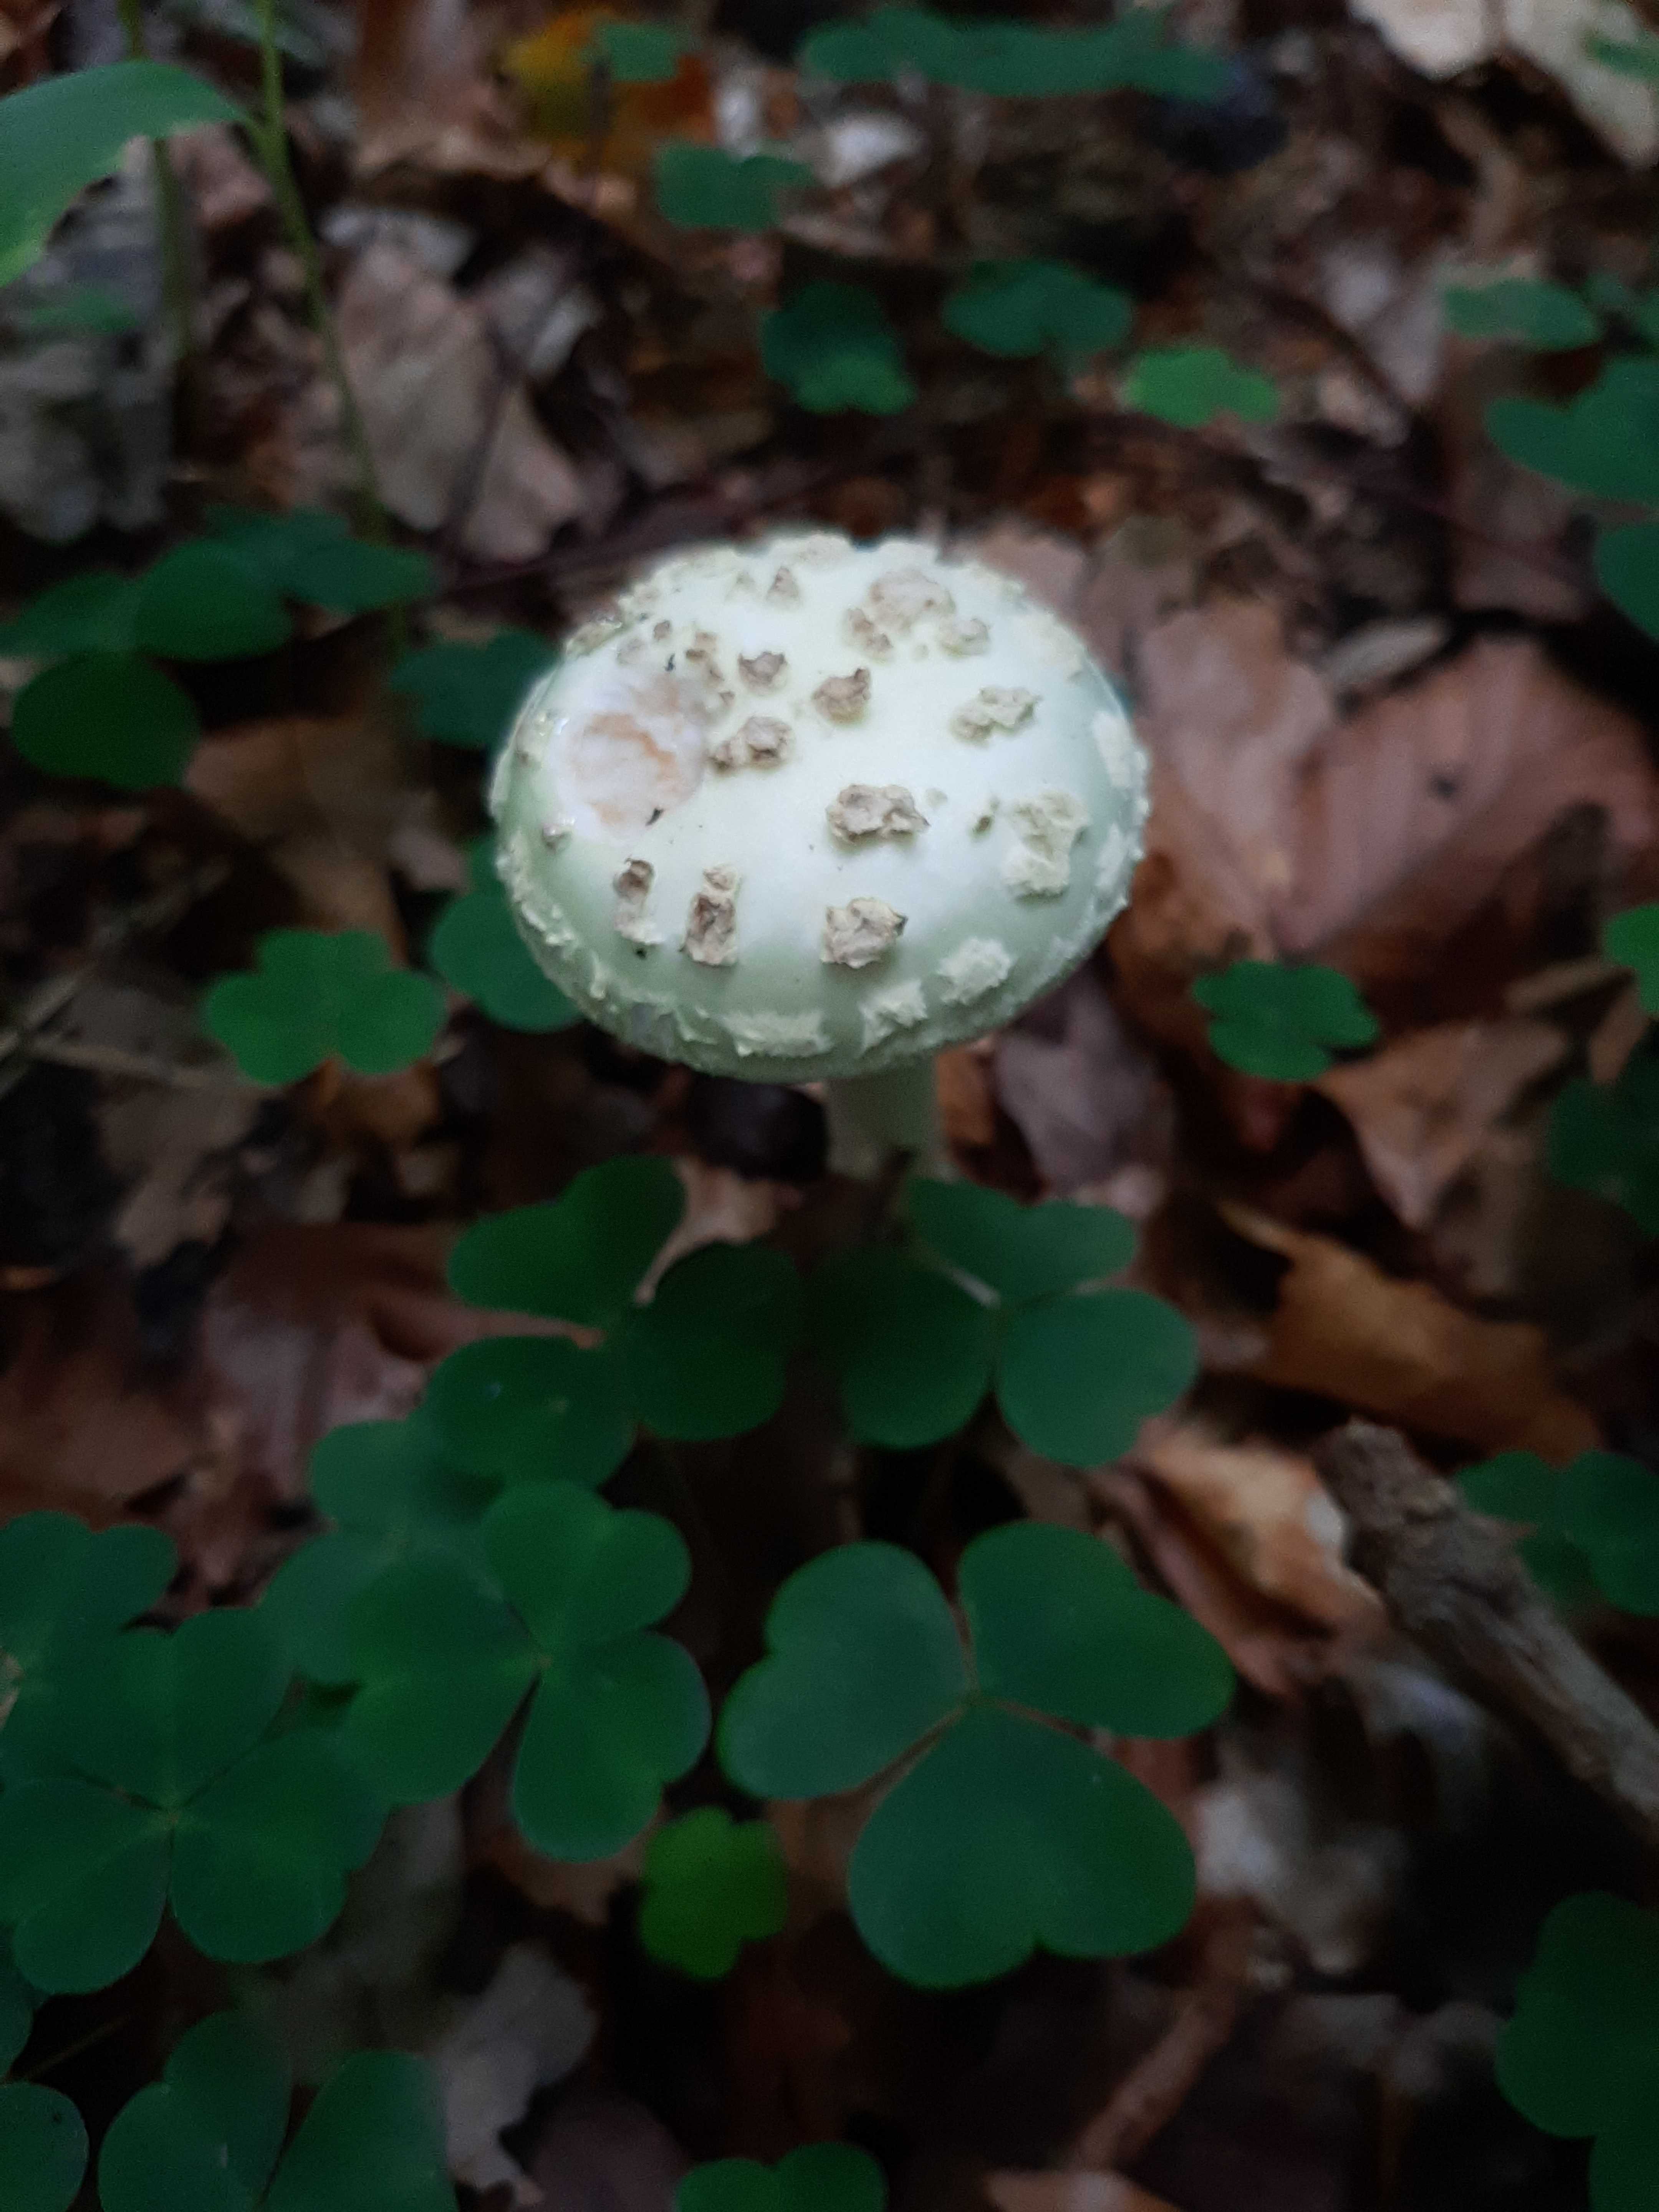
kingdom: Fungi
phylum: Basidiomycota
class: Agaricomycetes
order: Agaricales
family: Amanitaceae
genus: Amanita
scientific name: Amanita citrina
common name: kugleknoldet fluesvamp
